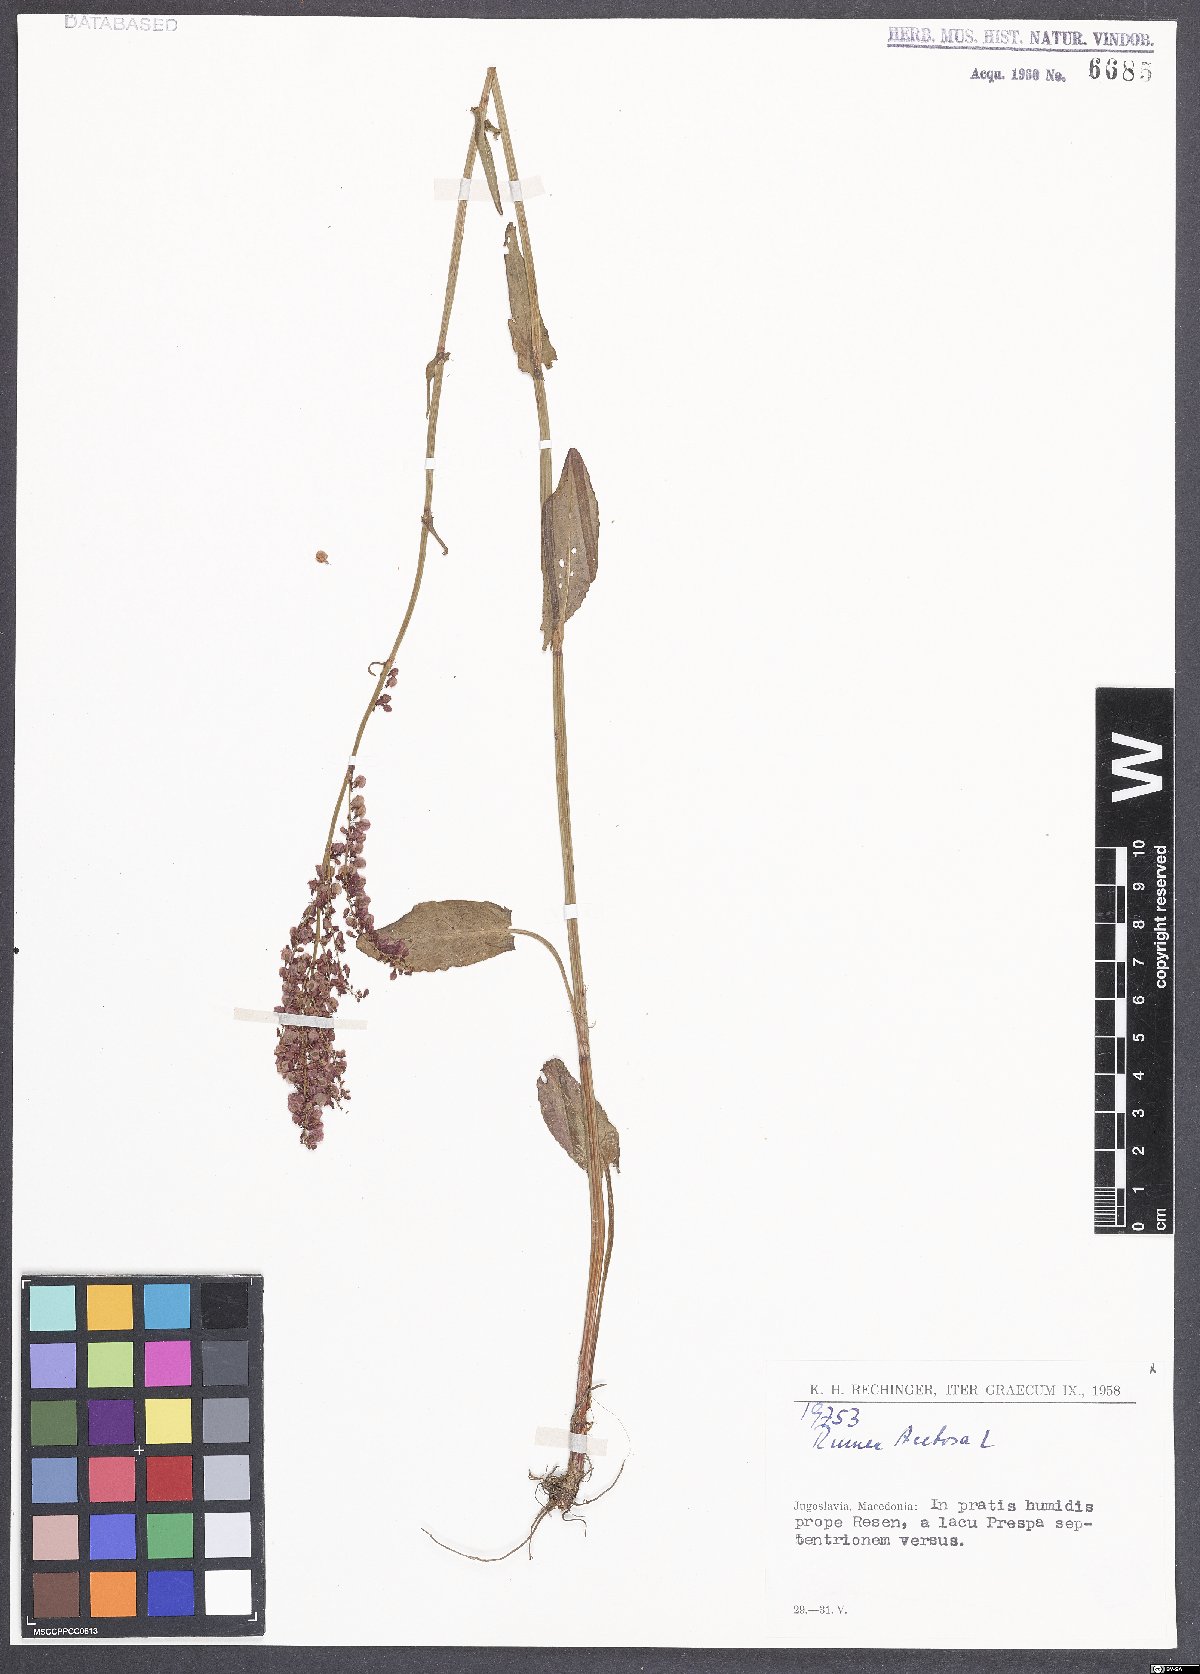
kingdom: Plantae
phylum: Tracheophyta
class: Magnoliopsida
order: Caryophyllales
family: Polygonaceae
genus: Rumex
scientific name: Rumex acetosa
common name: Garden sorrel
